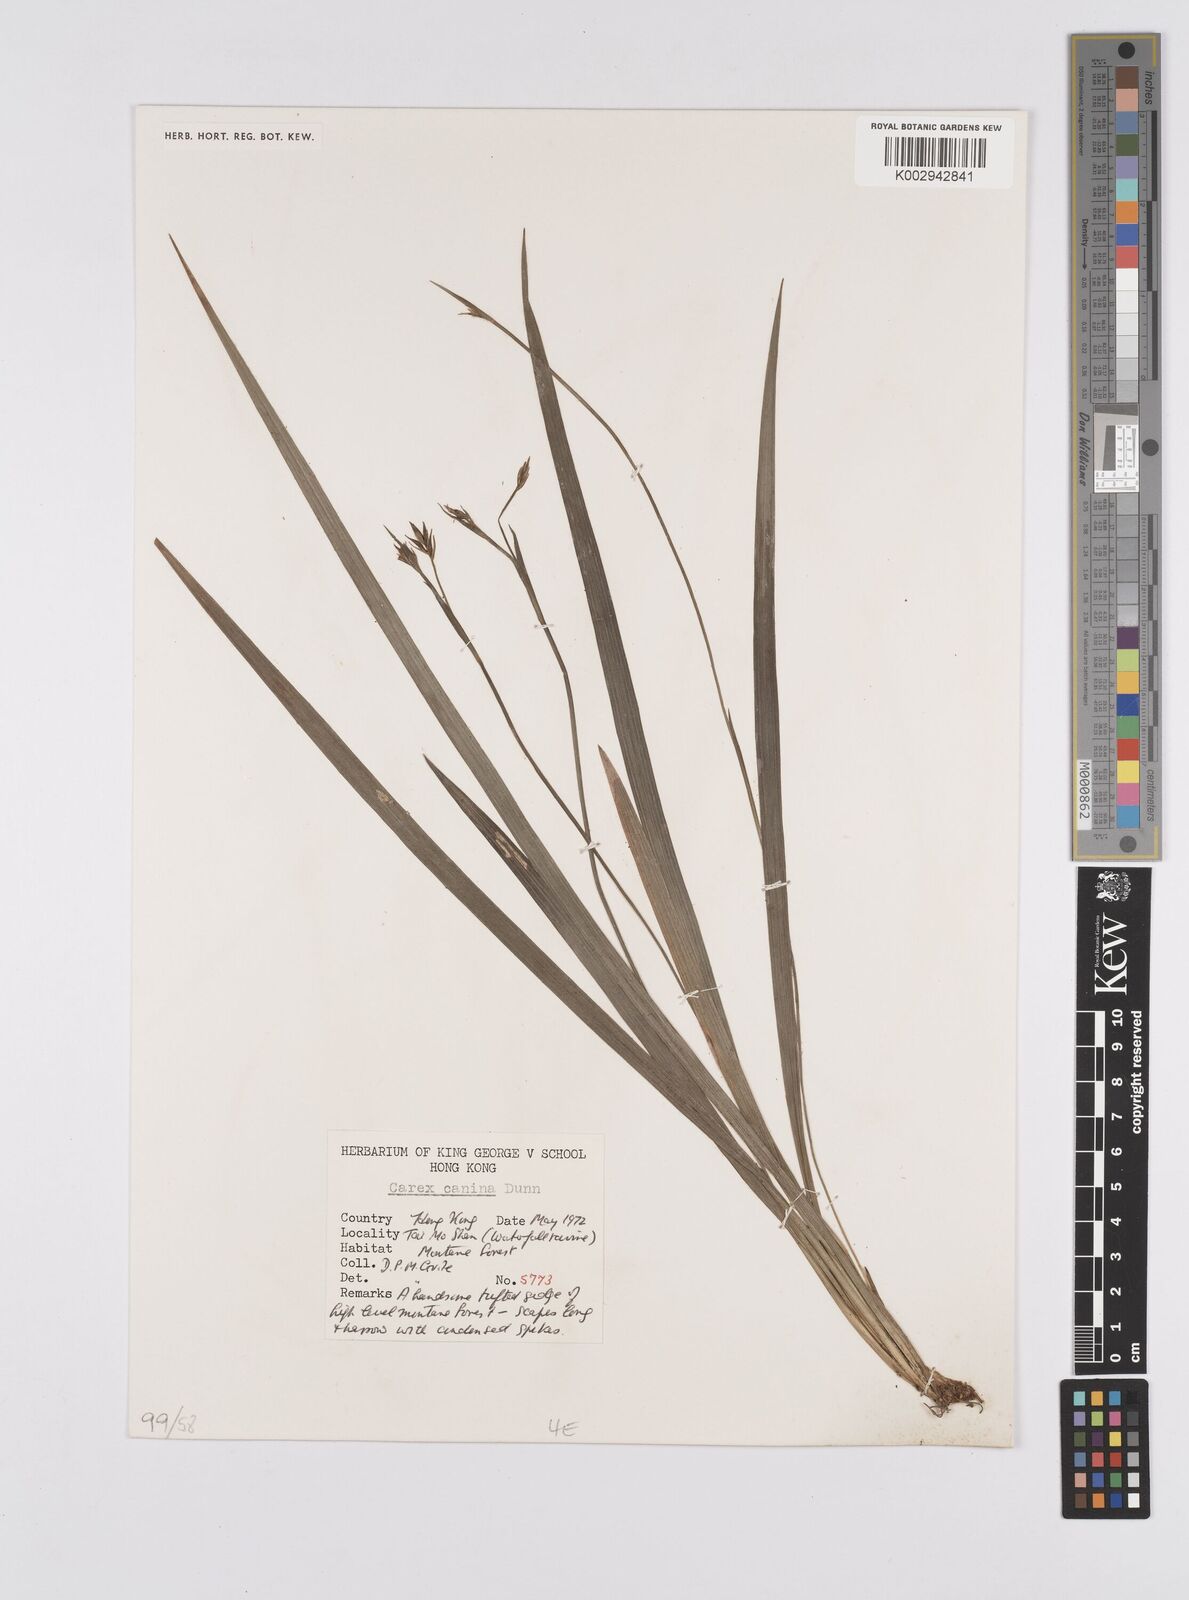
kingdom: Plantae
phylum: Tracheophyta
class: Liliopsida
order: Poales
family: Cyperaceae
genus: Carex
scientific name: Carex canina
